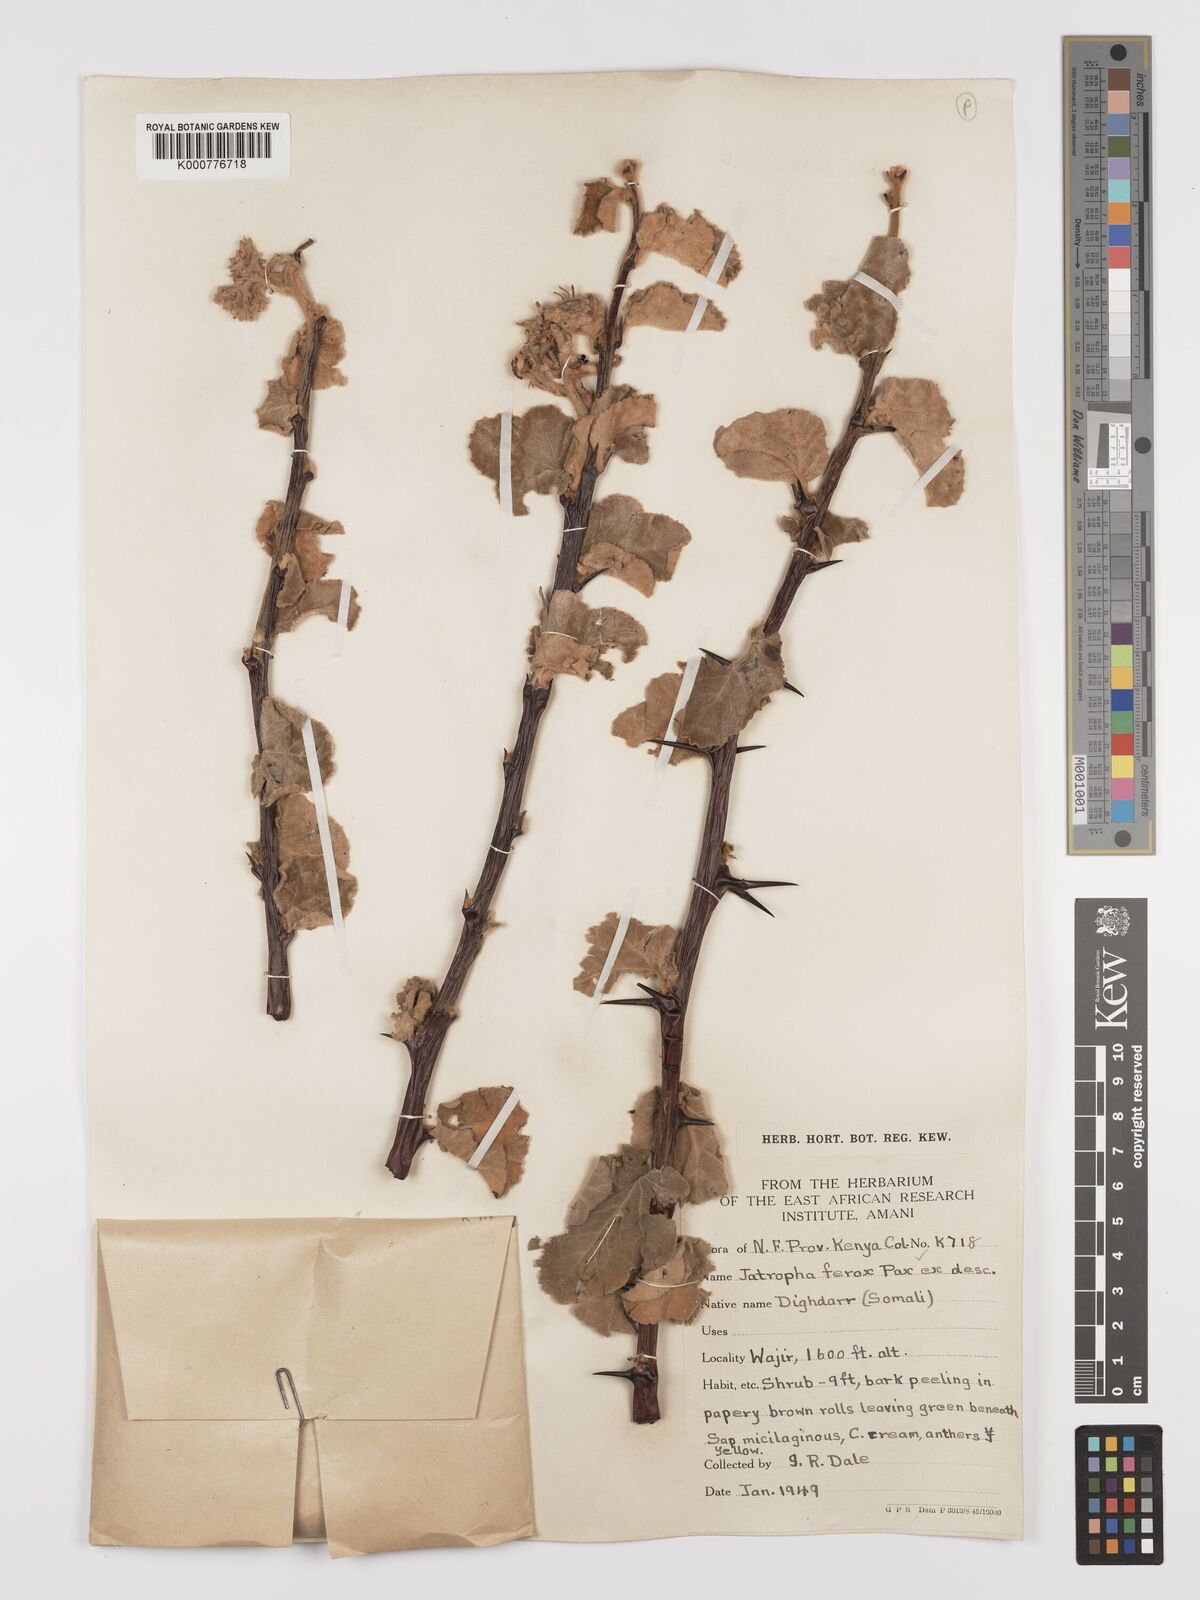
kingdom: Plantae
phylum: Tracheophyta
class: Magnoliopsida
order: Malpighiales
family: Euphorbiaceae
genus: Jatropha
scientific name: Jatropha dichtar
